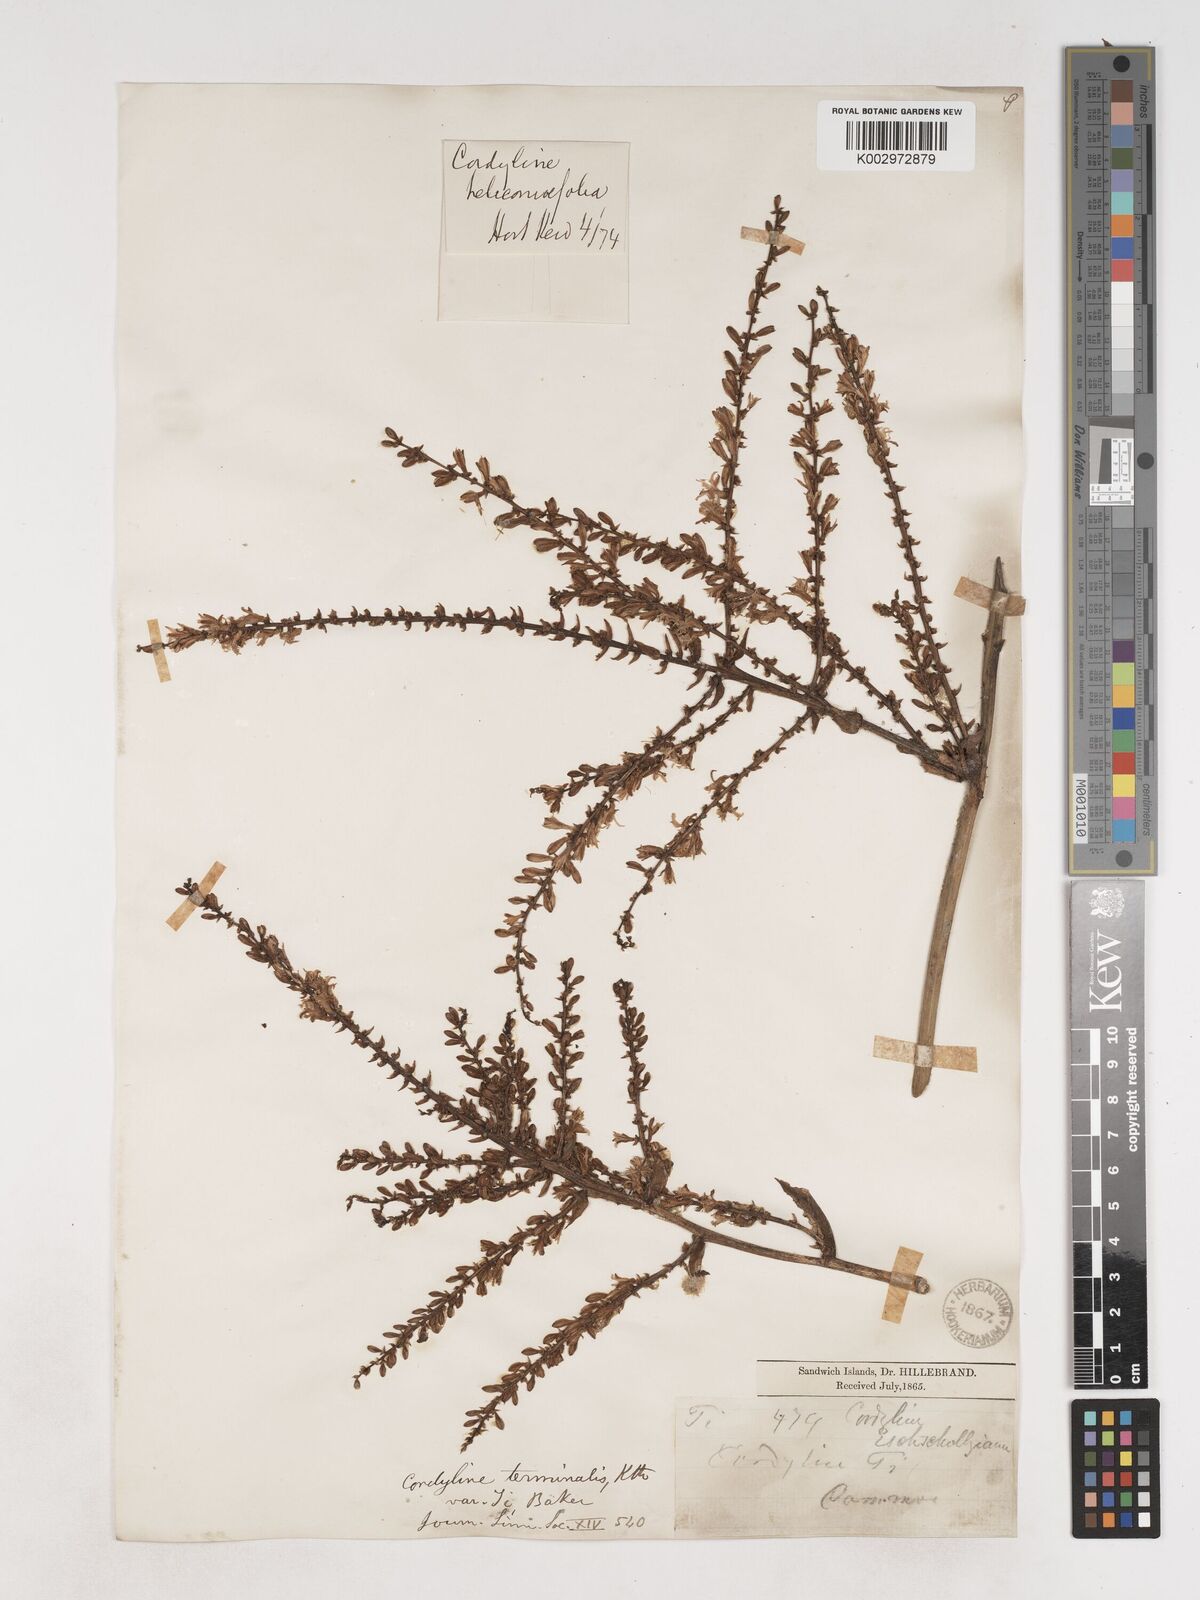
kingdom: Plantae
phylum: Tracheophyta
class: Liliopsida
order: Asparagales
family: Asparagaceae
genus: Cordyline
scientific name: Cordyline fruticosa
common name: Good-luck-plant
